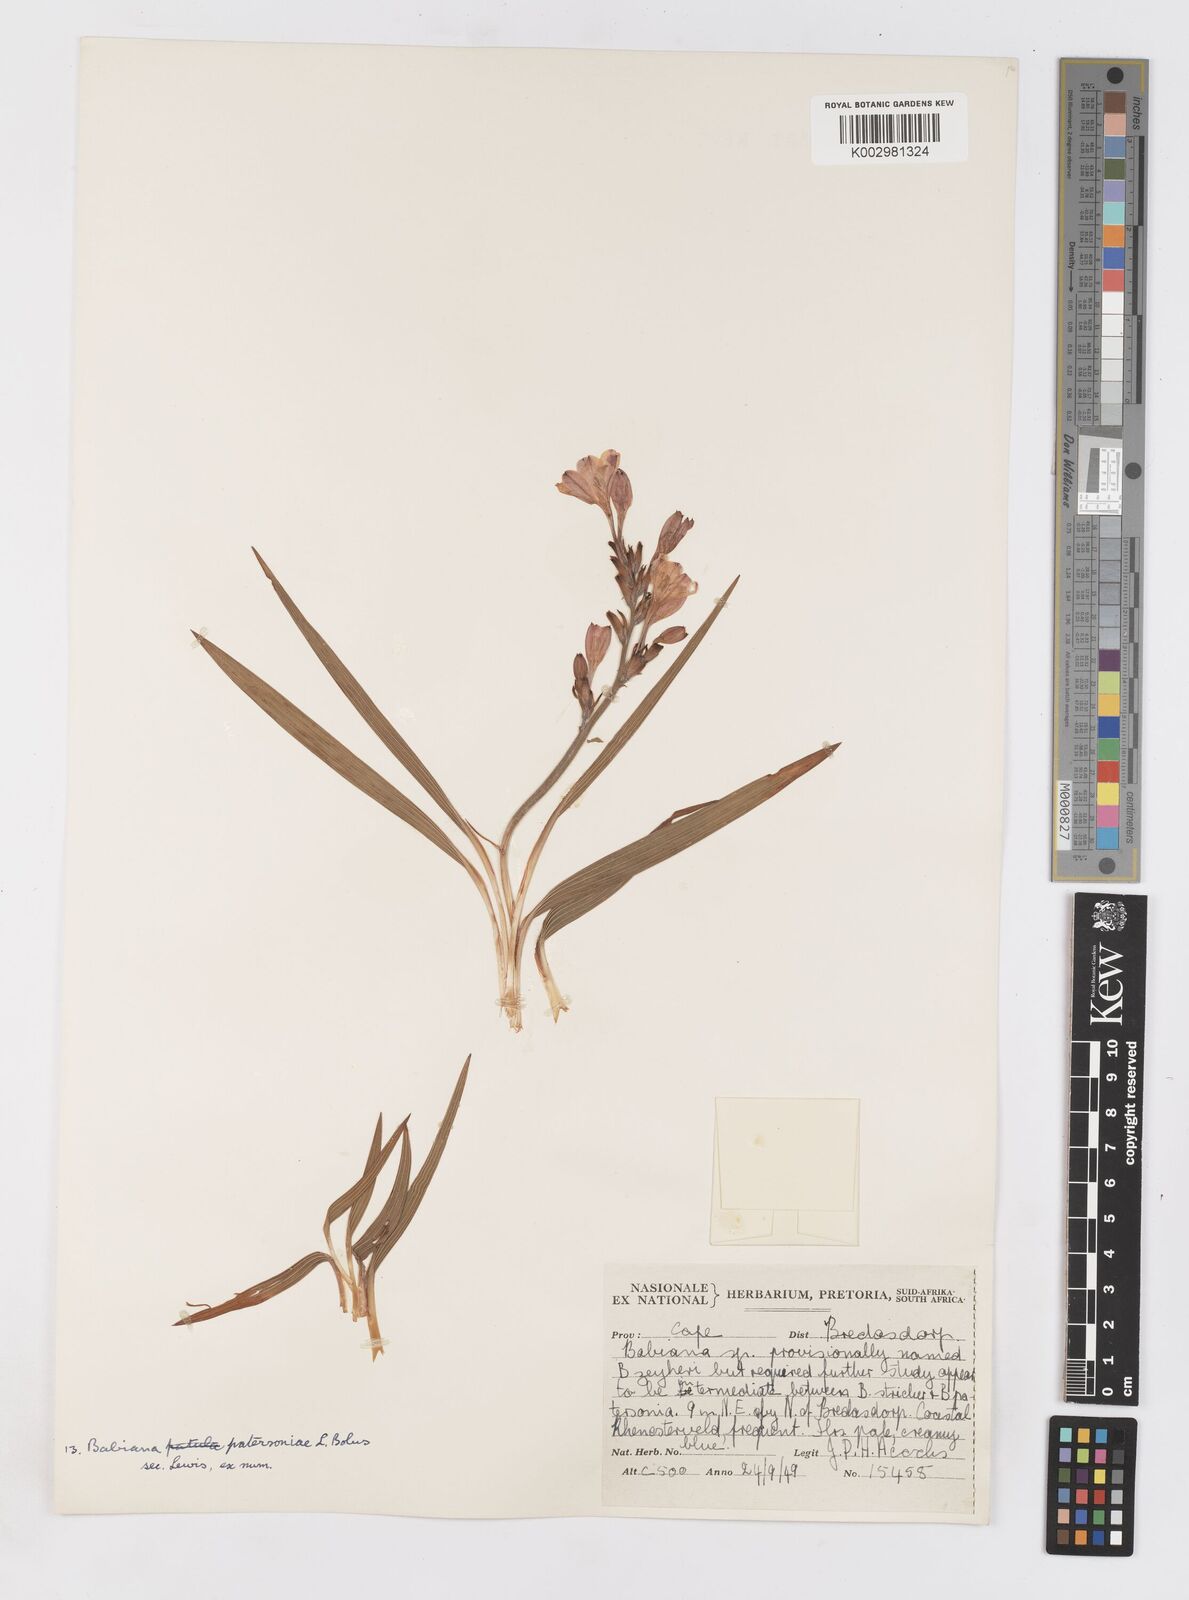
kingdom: Plantae
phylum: Tracheophyta
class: Liliopsida
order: Asparagales
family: Iridaceae
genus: Babiana
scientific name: Babiana patersoniae
